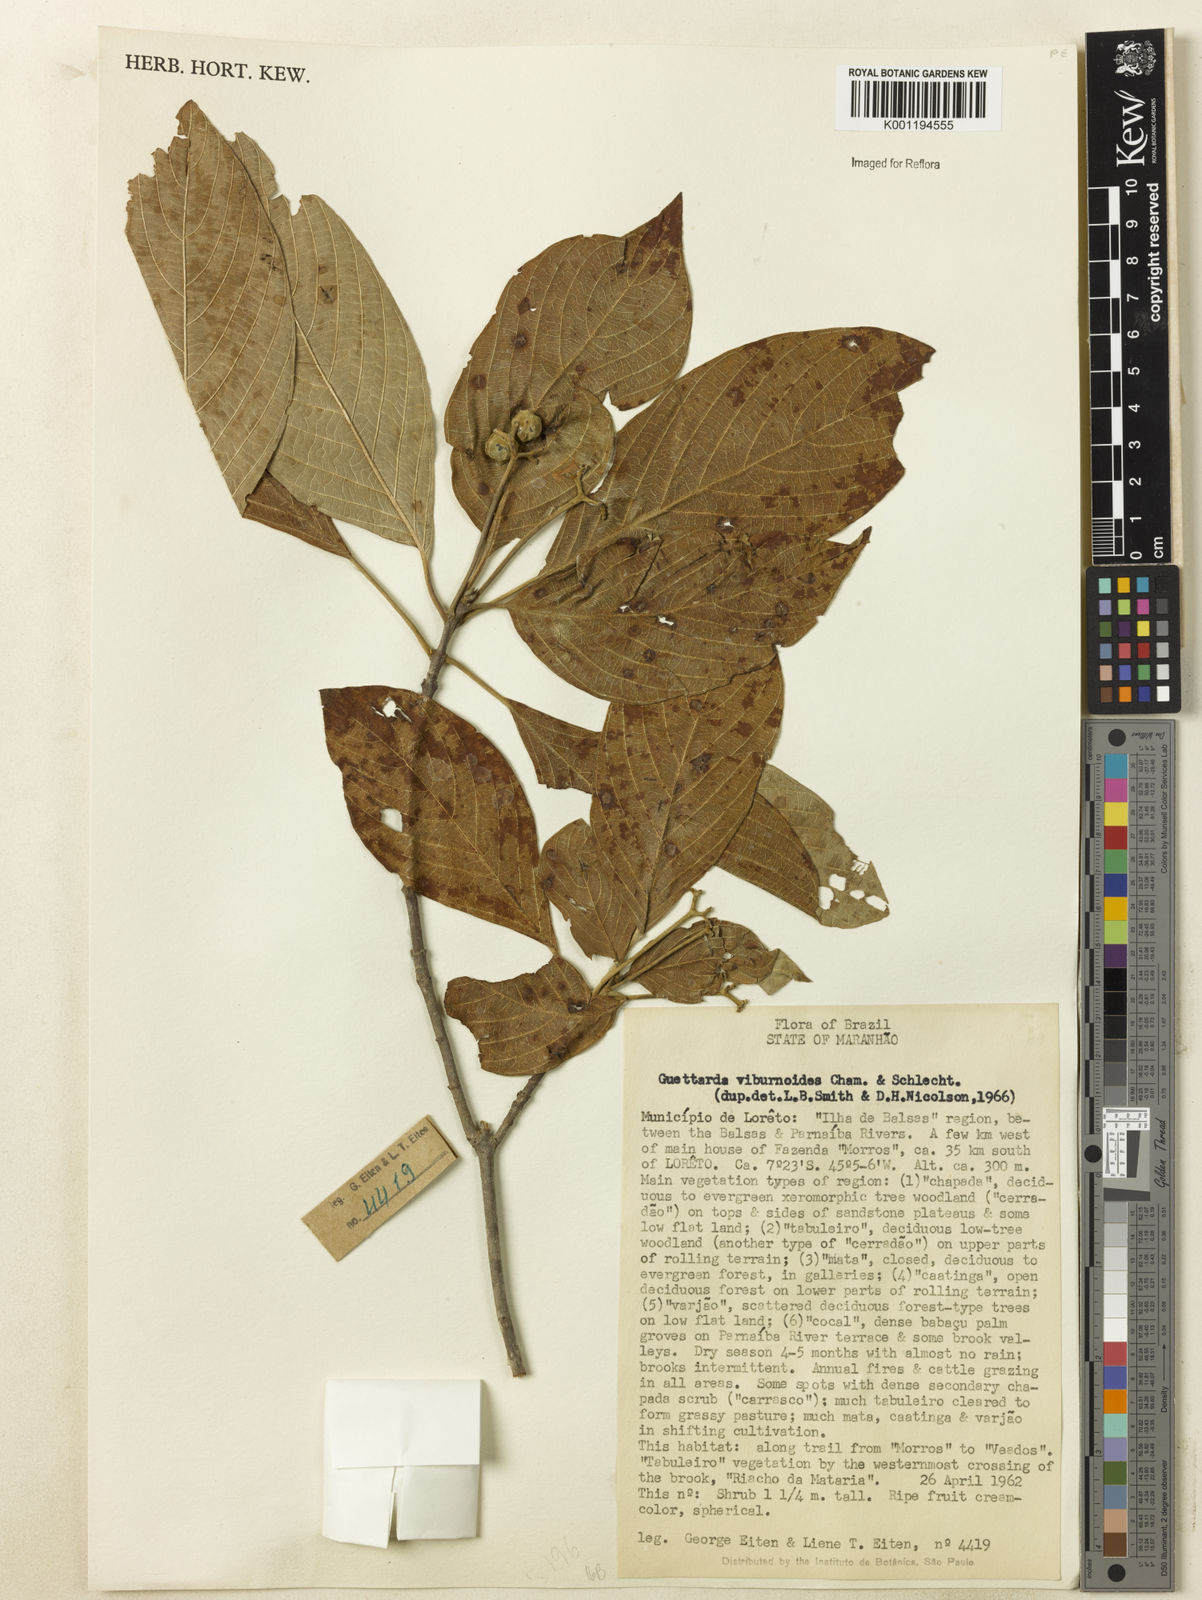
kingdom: Plantae
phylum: Tracheophyta
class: Magnoliopsida
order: Gentianales
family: Rubiaceae
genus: Guettarda
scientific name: Guettarda viburnoides
